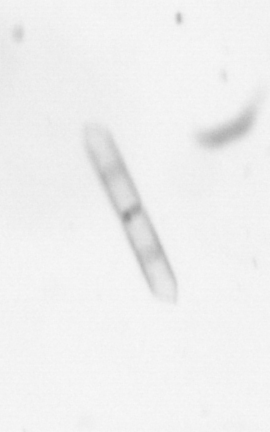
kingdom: Chromista
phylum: Ochrophyta
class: Bacillariophyceae
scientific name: Bacillariophyceae
